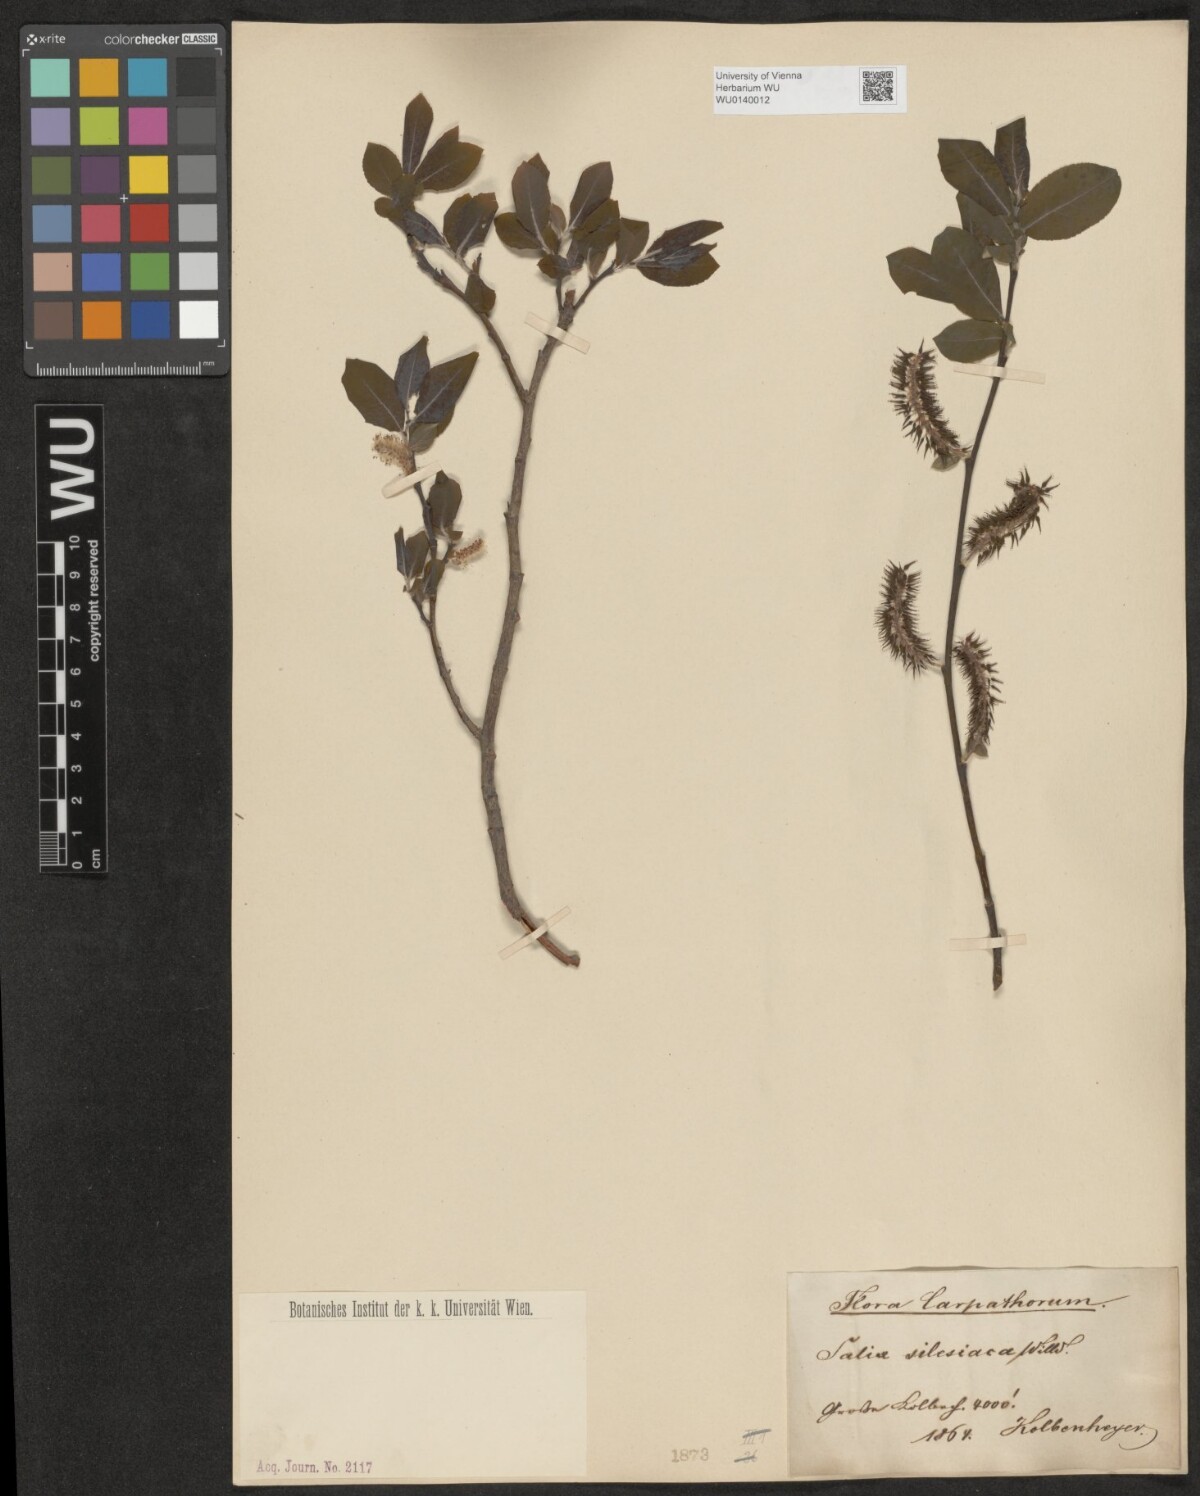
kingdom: Plantae
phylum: Tracheophyta
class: Magnoliopsida
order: Malpighiales
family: Salicaceae
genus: Salix
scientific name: Salix silesiaca
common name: Silesian willow
